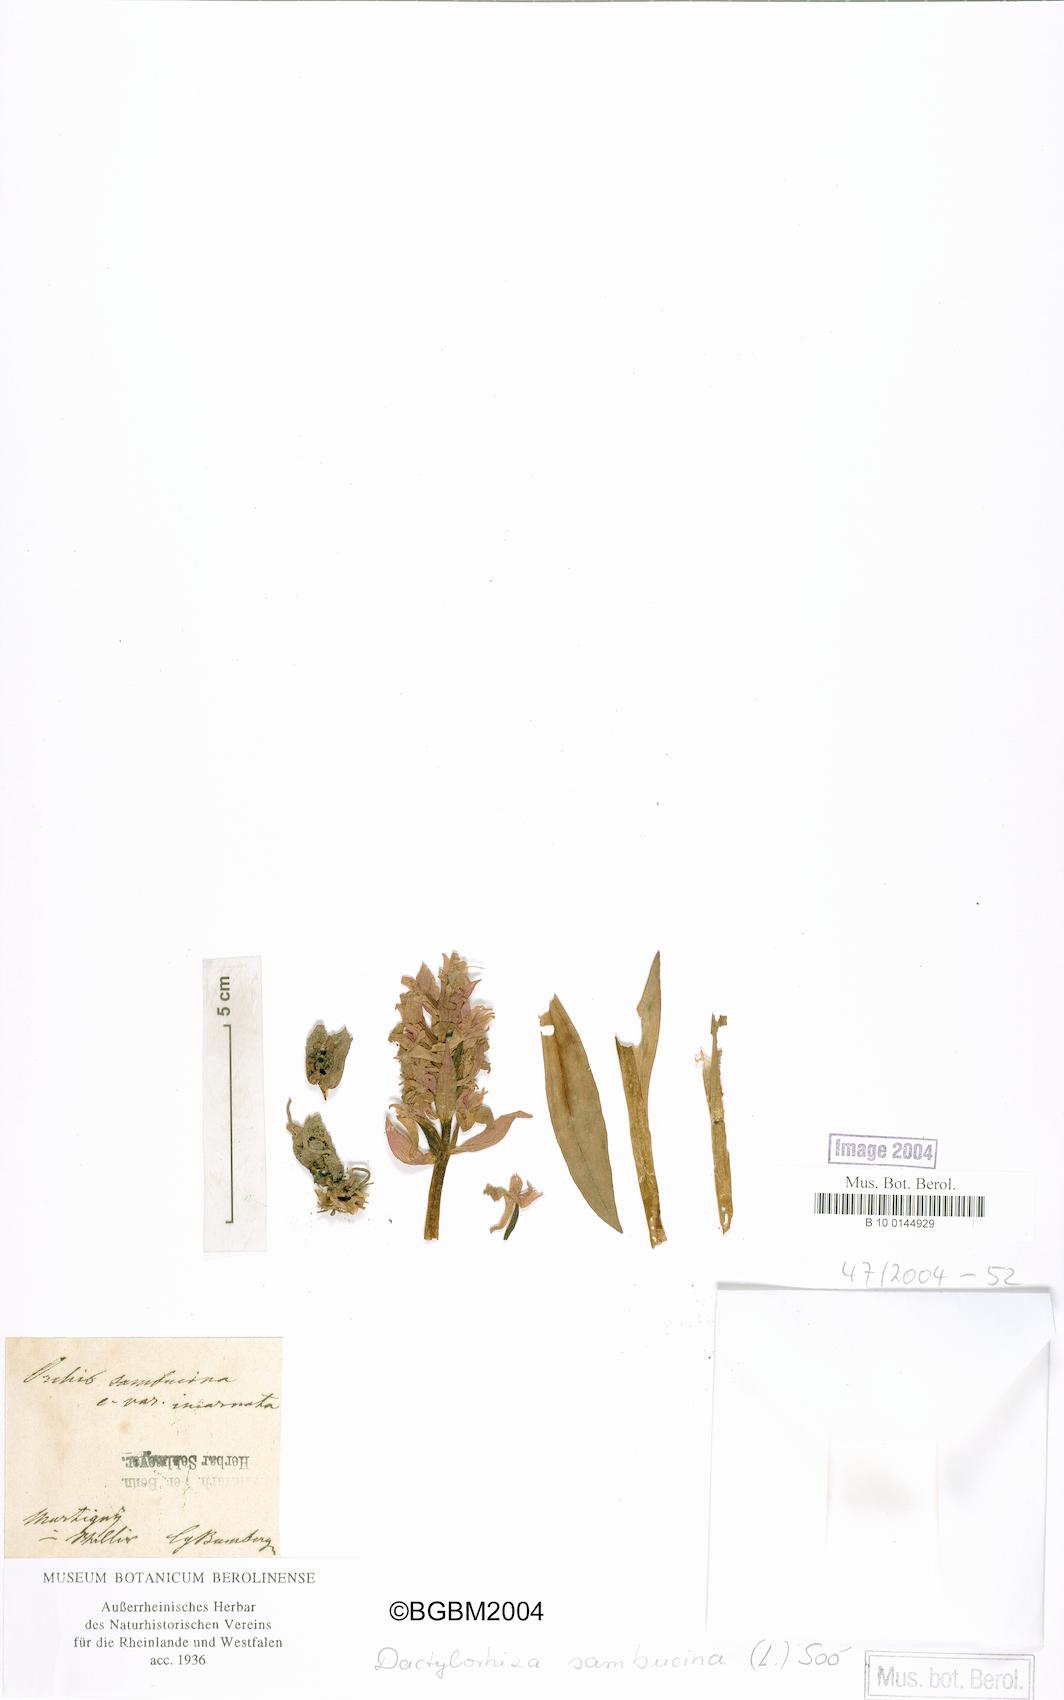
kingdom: Plantae
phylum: Tracheophyta
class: Liliopsida
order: Asparagales
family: Orchidaceae
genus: Dactylorhiza
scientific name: Dactylorhiza sambucina
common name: Elder-flowered orchid
